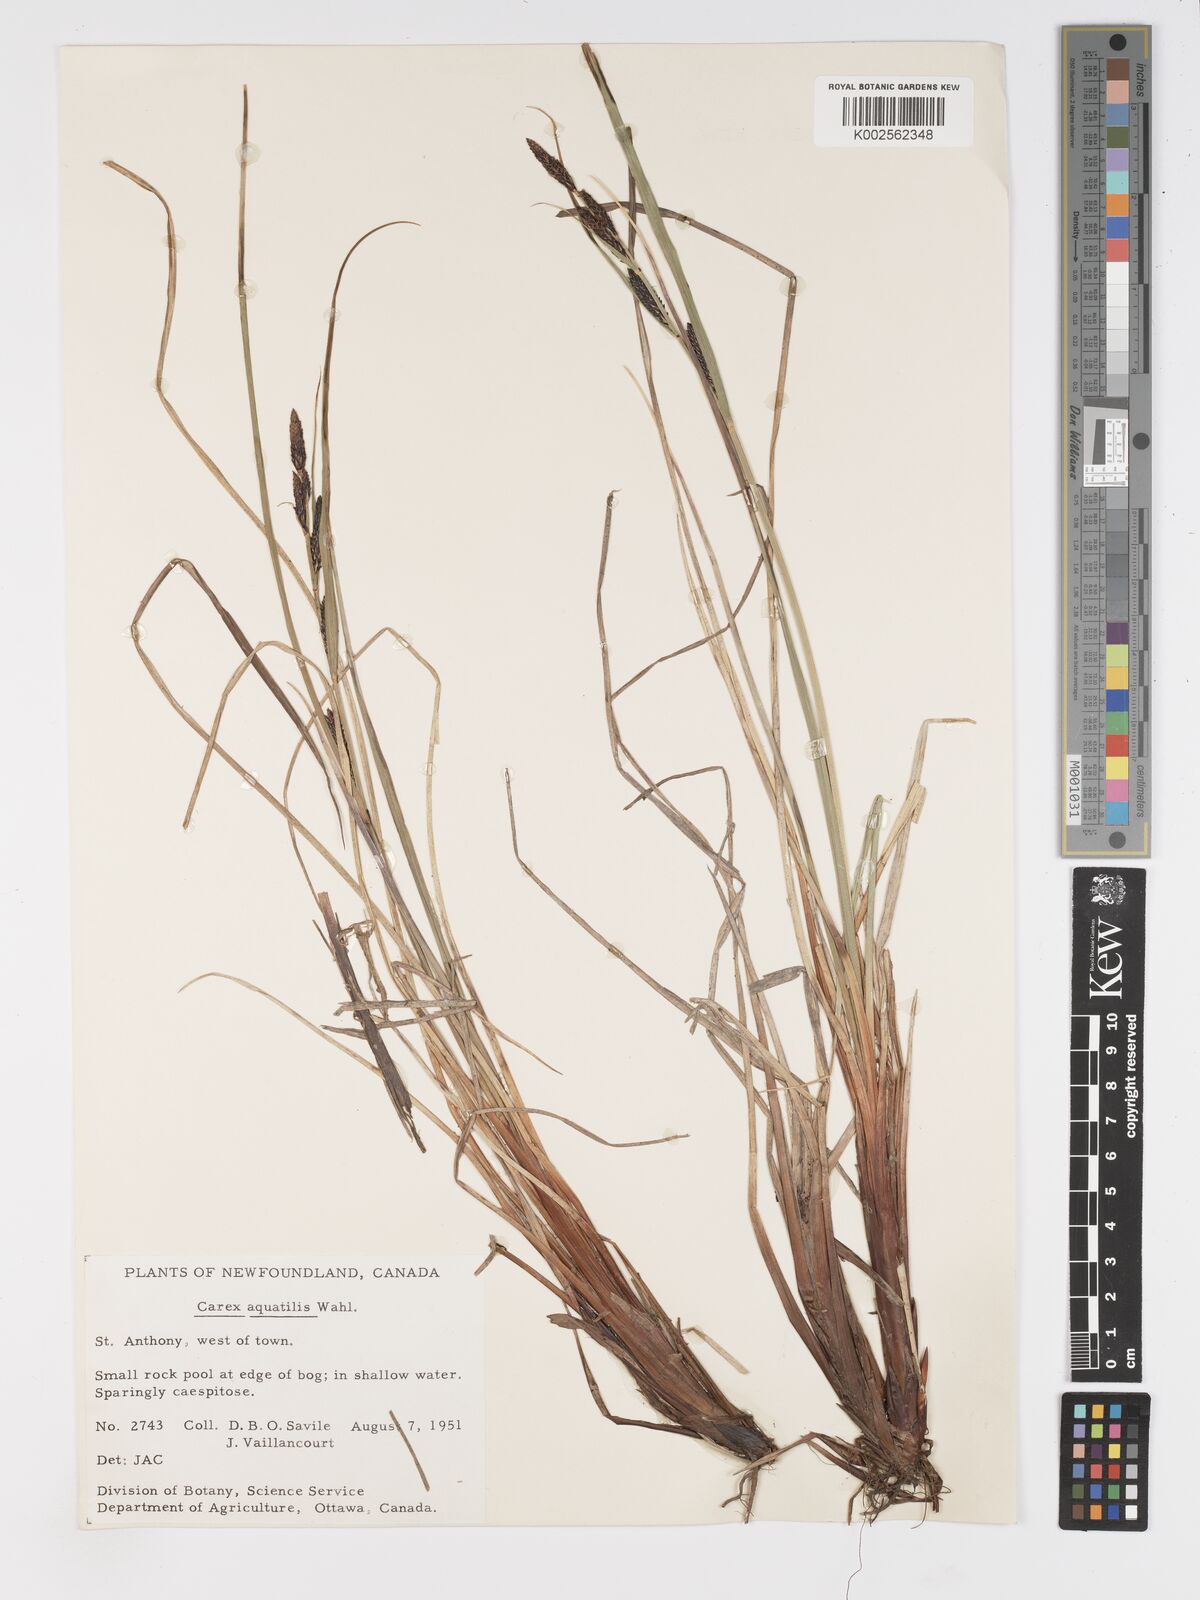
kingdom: Plantae
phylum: Tracheophyta
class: Liliopsida
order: Poales
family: Cyperaceae
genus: Carex
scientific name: Carex aquatilis
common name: Water sedge
